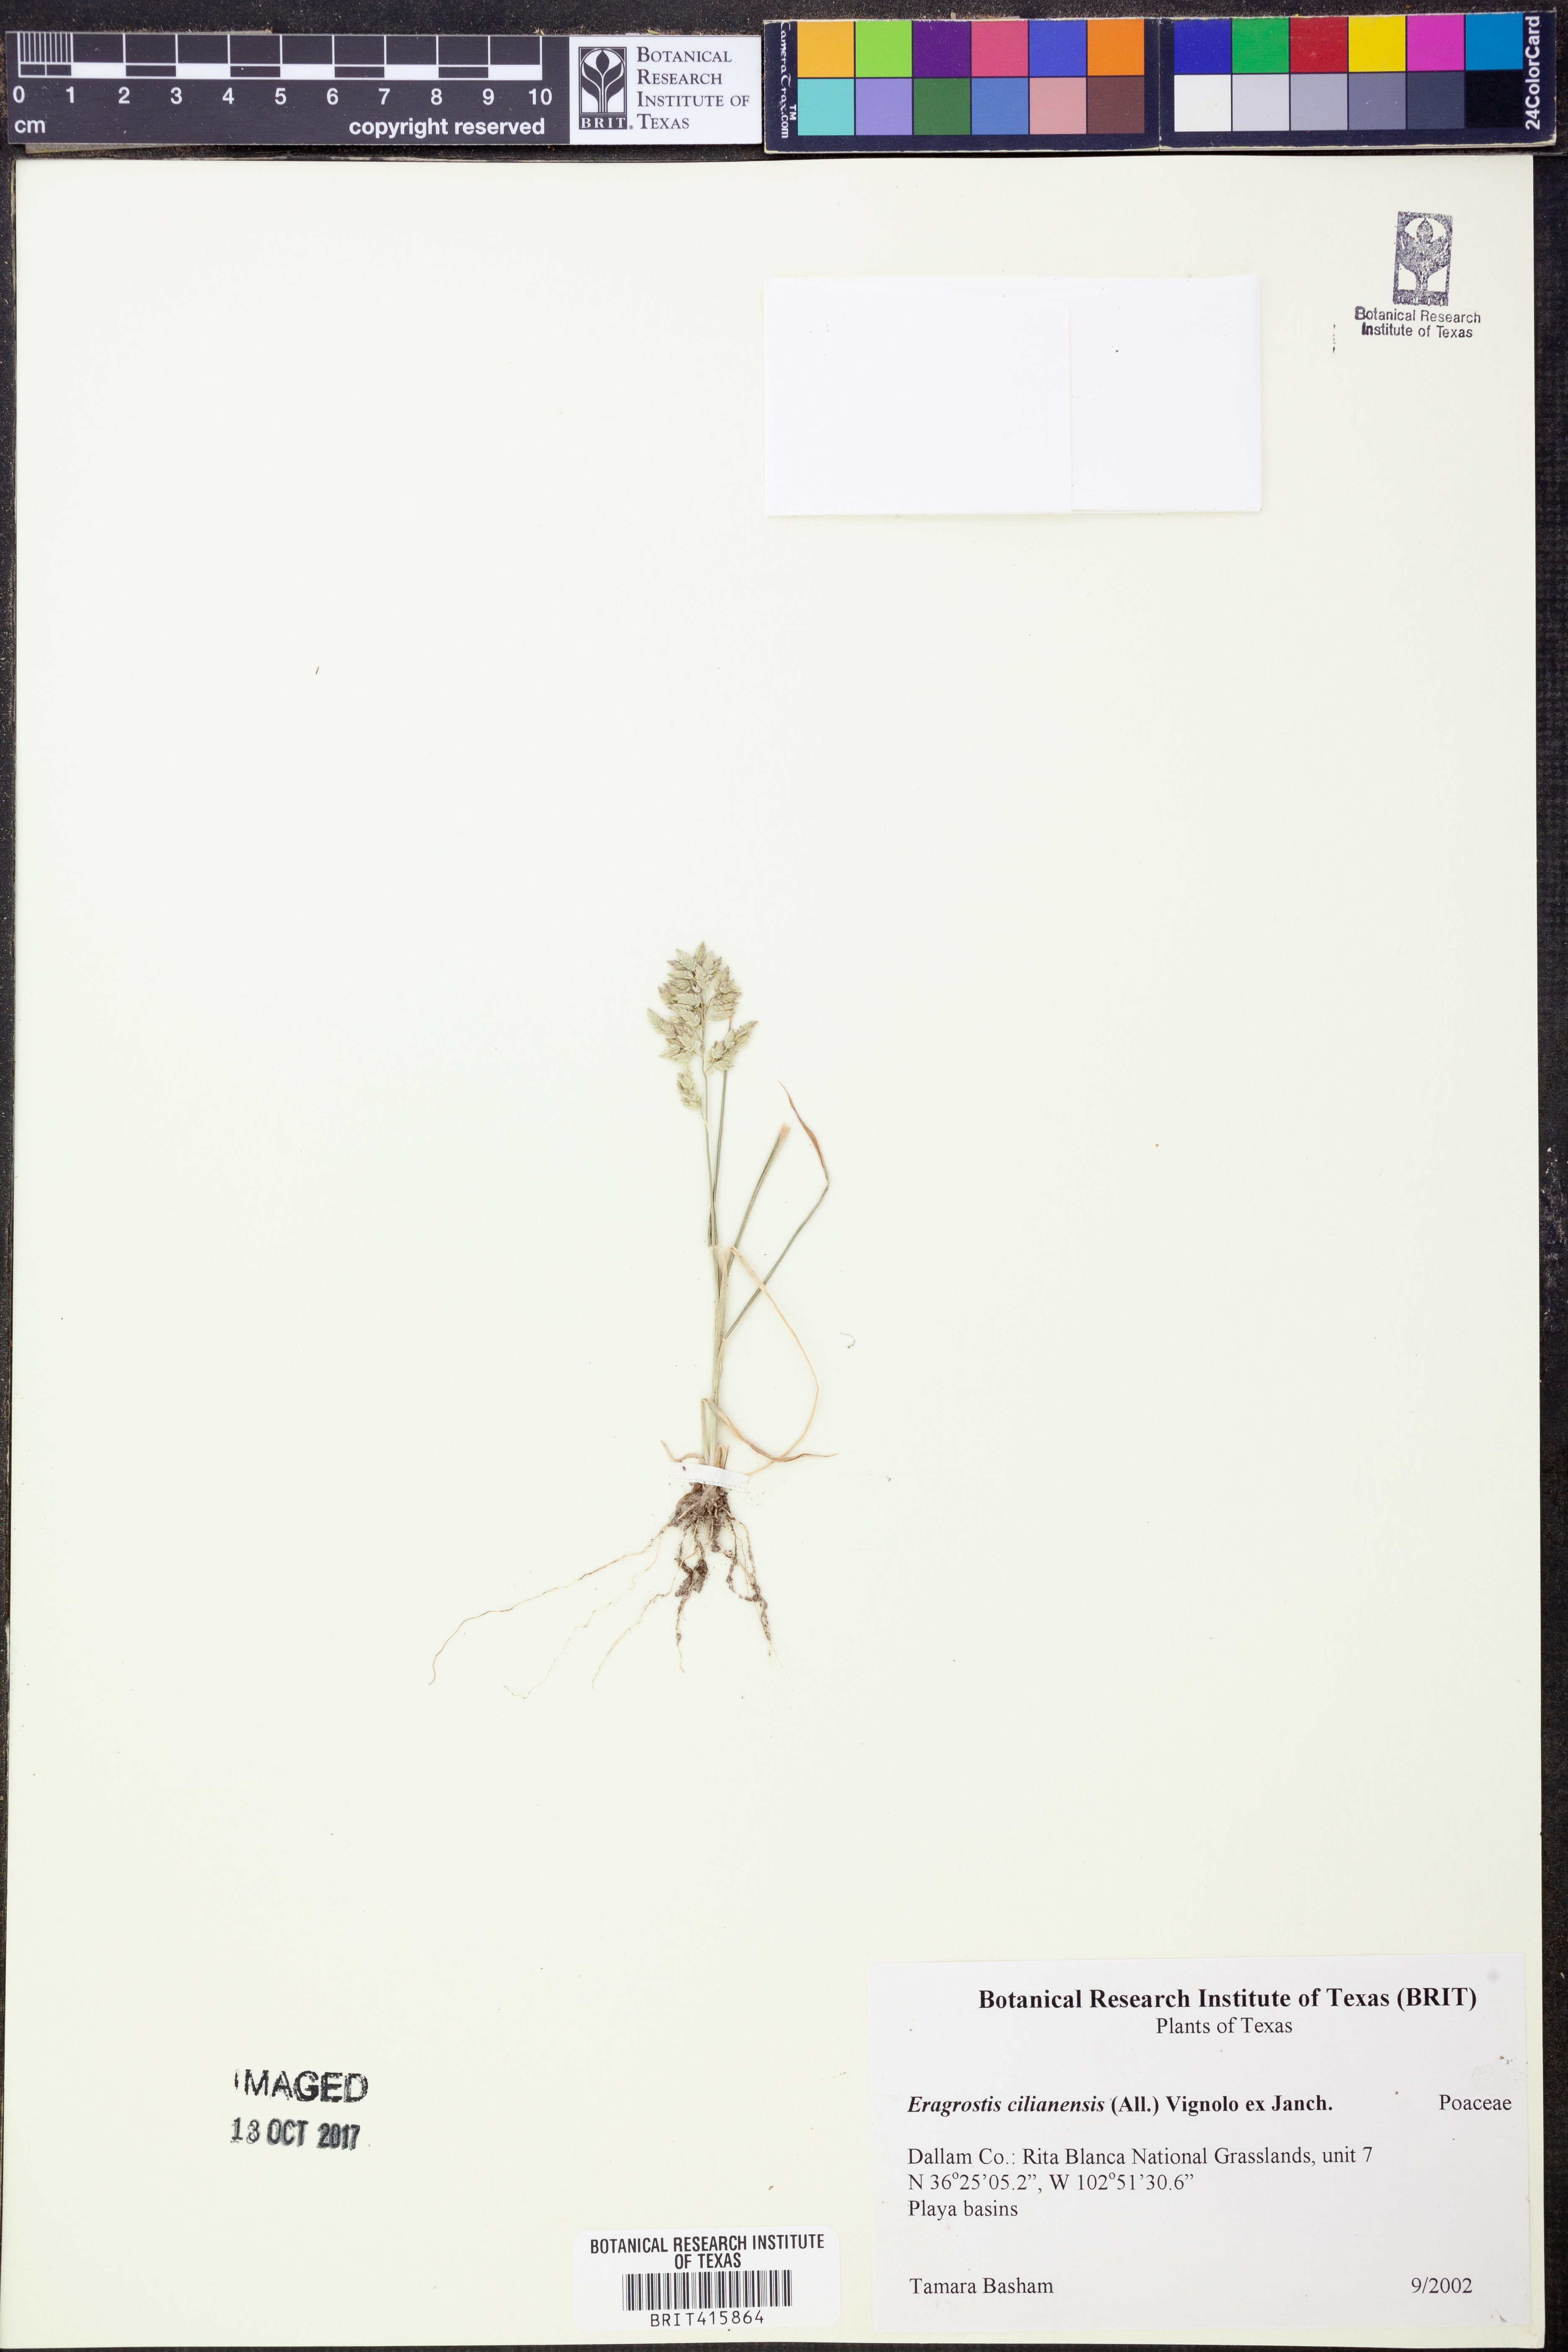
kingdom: Plantae
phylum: Tracheophyta
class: Liliopsida
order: Poales
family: Poaceae
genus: Eragrostis
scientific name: Eragrostis cilianensis
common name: Stinkgrass
